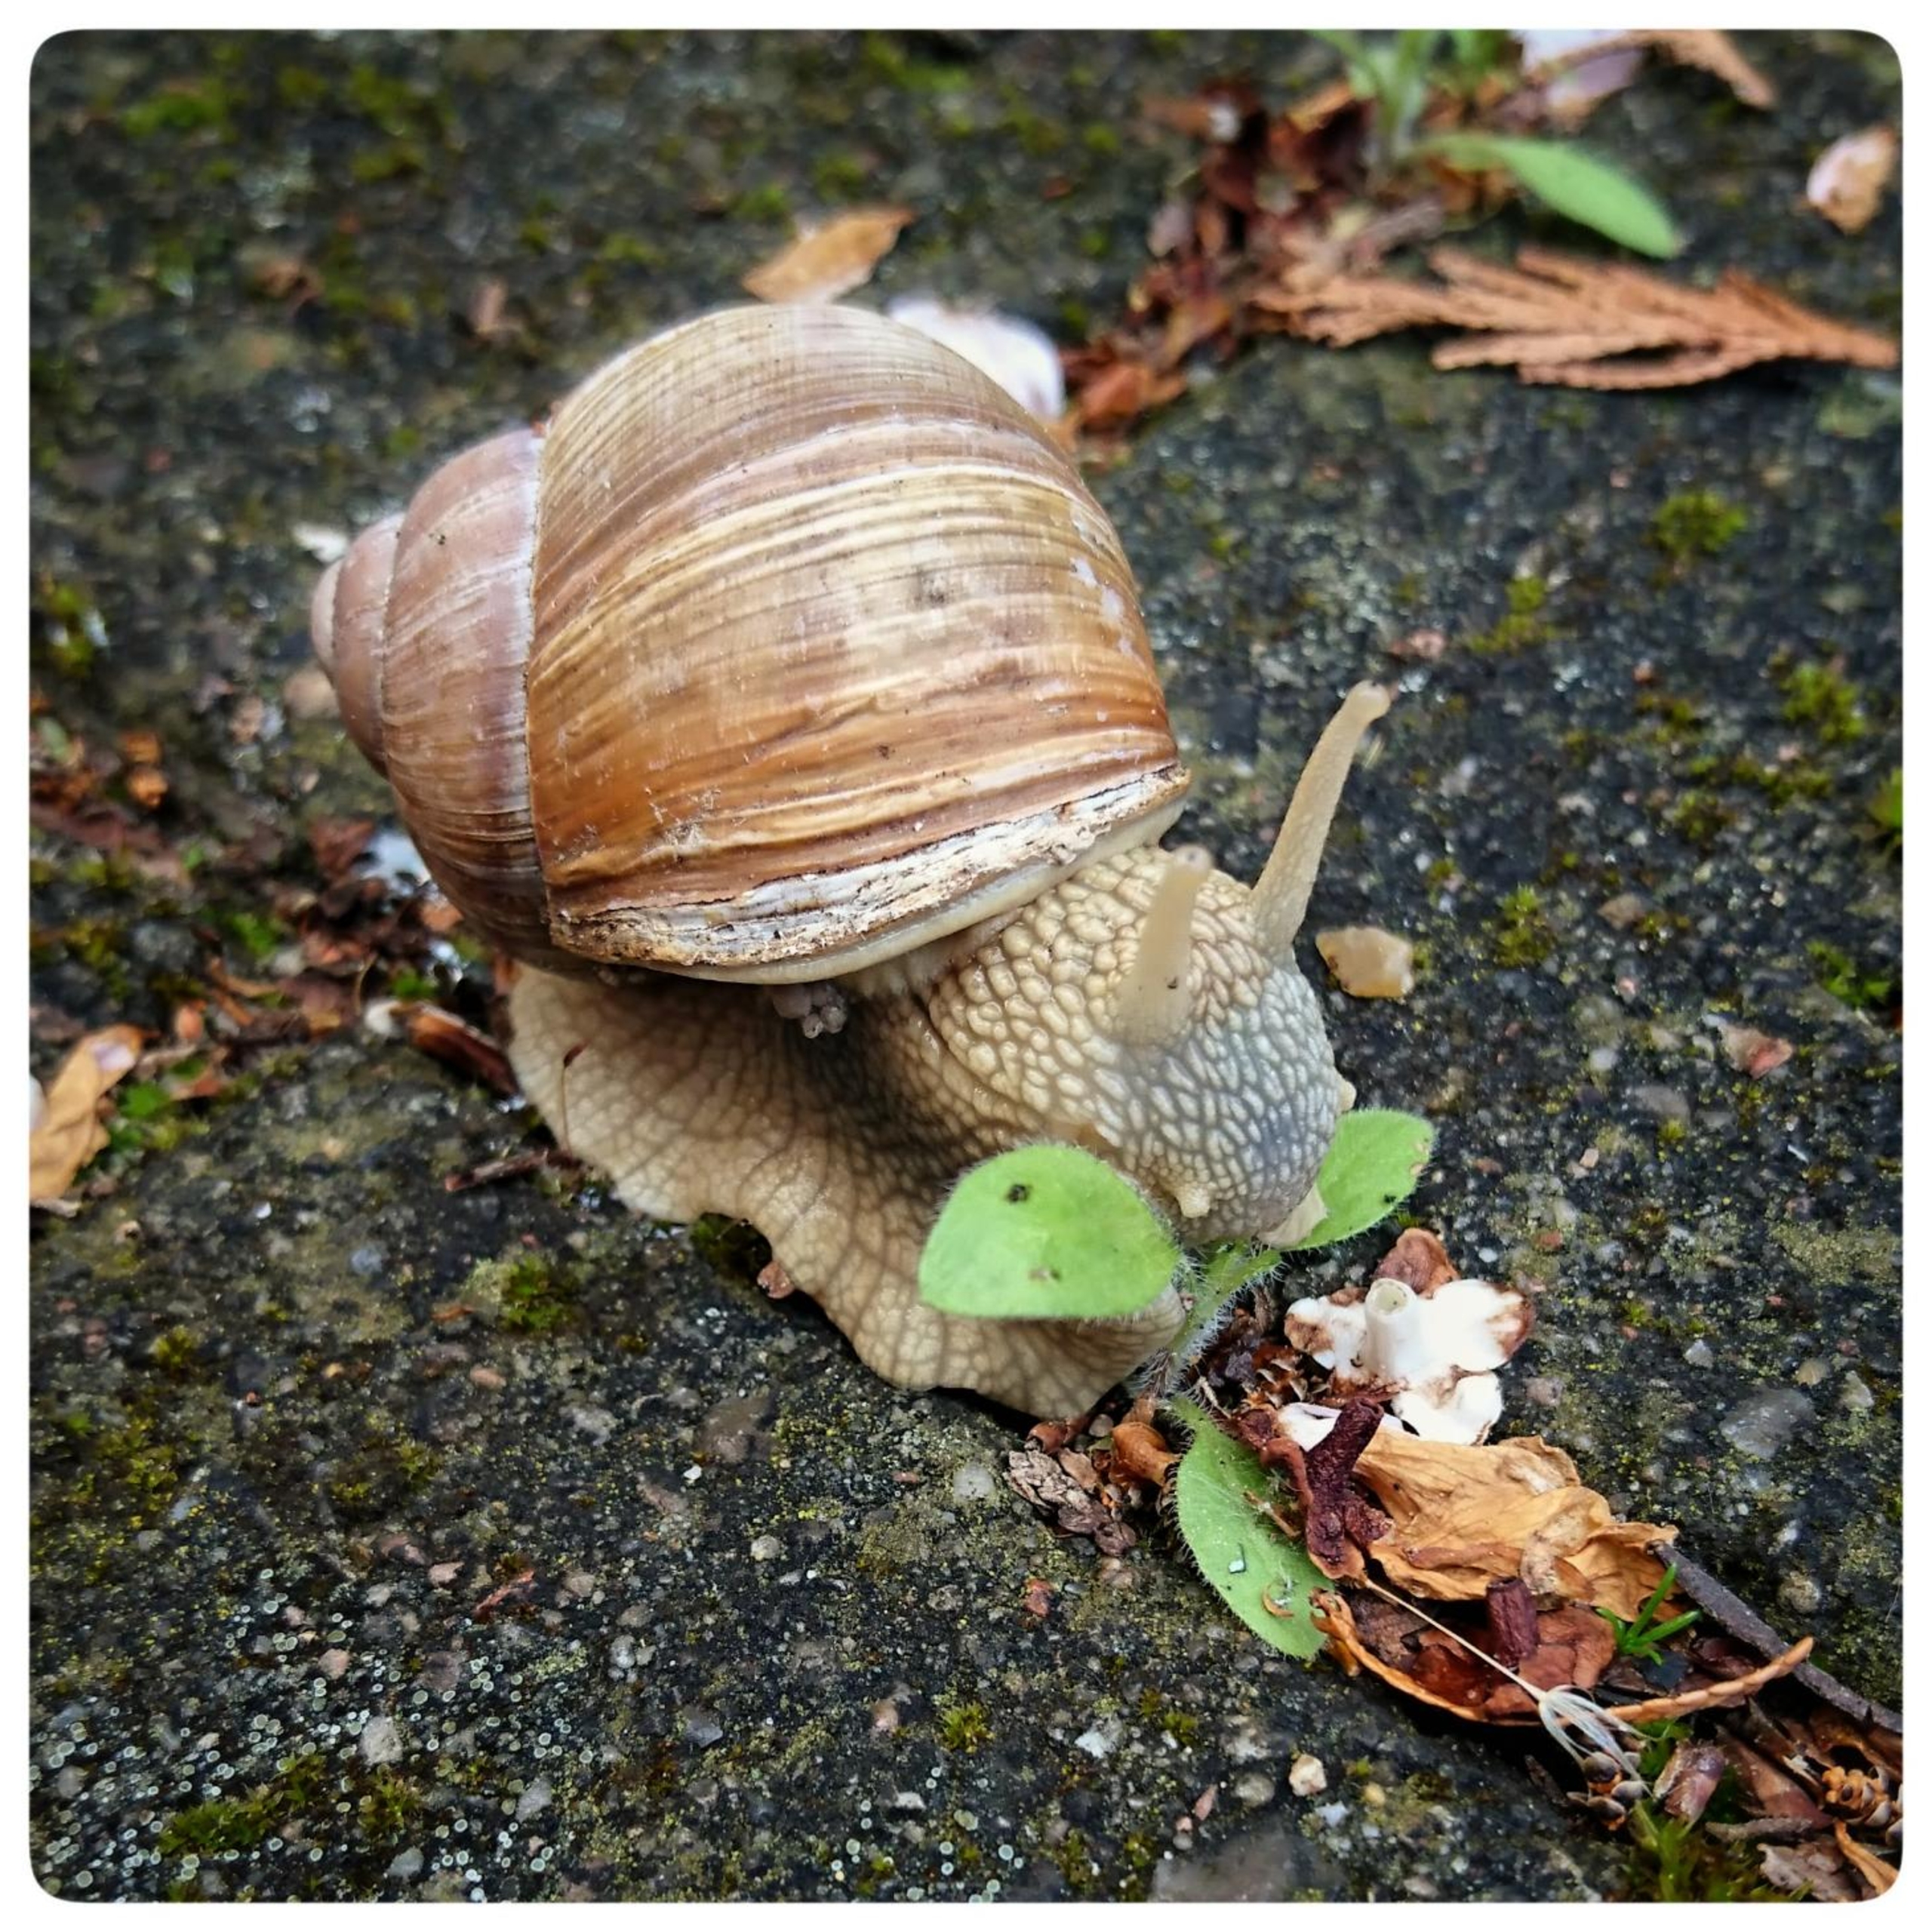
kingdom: Animalia
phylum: Mollusca
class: Gastropoda
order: Stylommatophora
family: Helicidae
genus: Helix
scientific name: Helix pomatia
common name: Vinbjergsnegl
